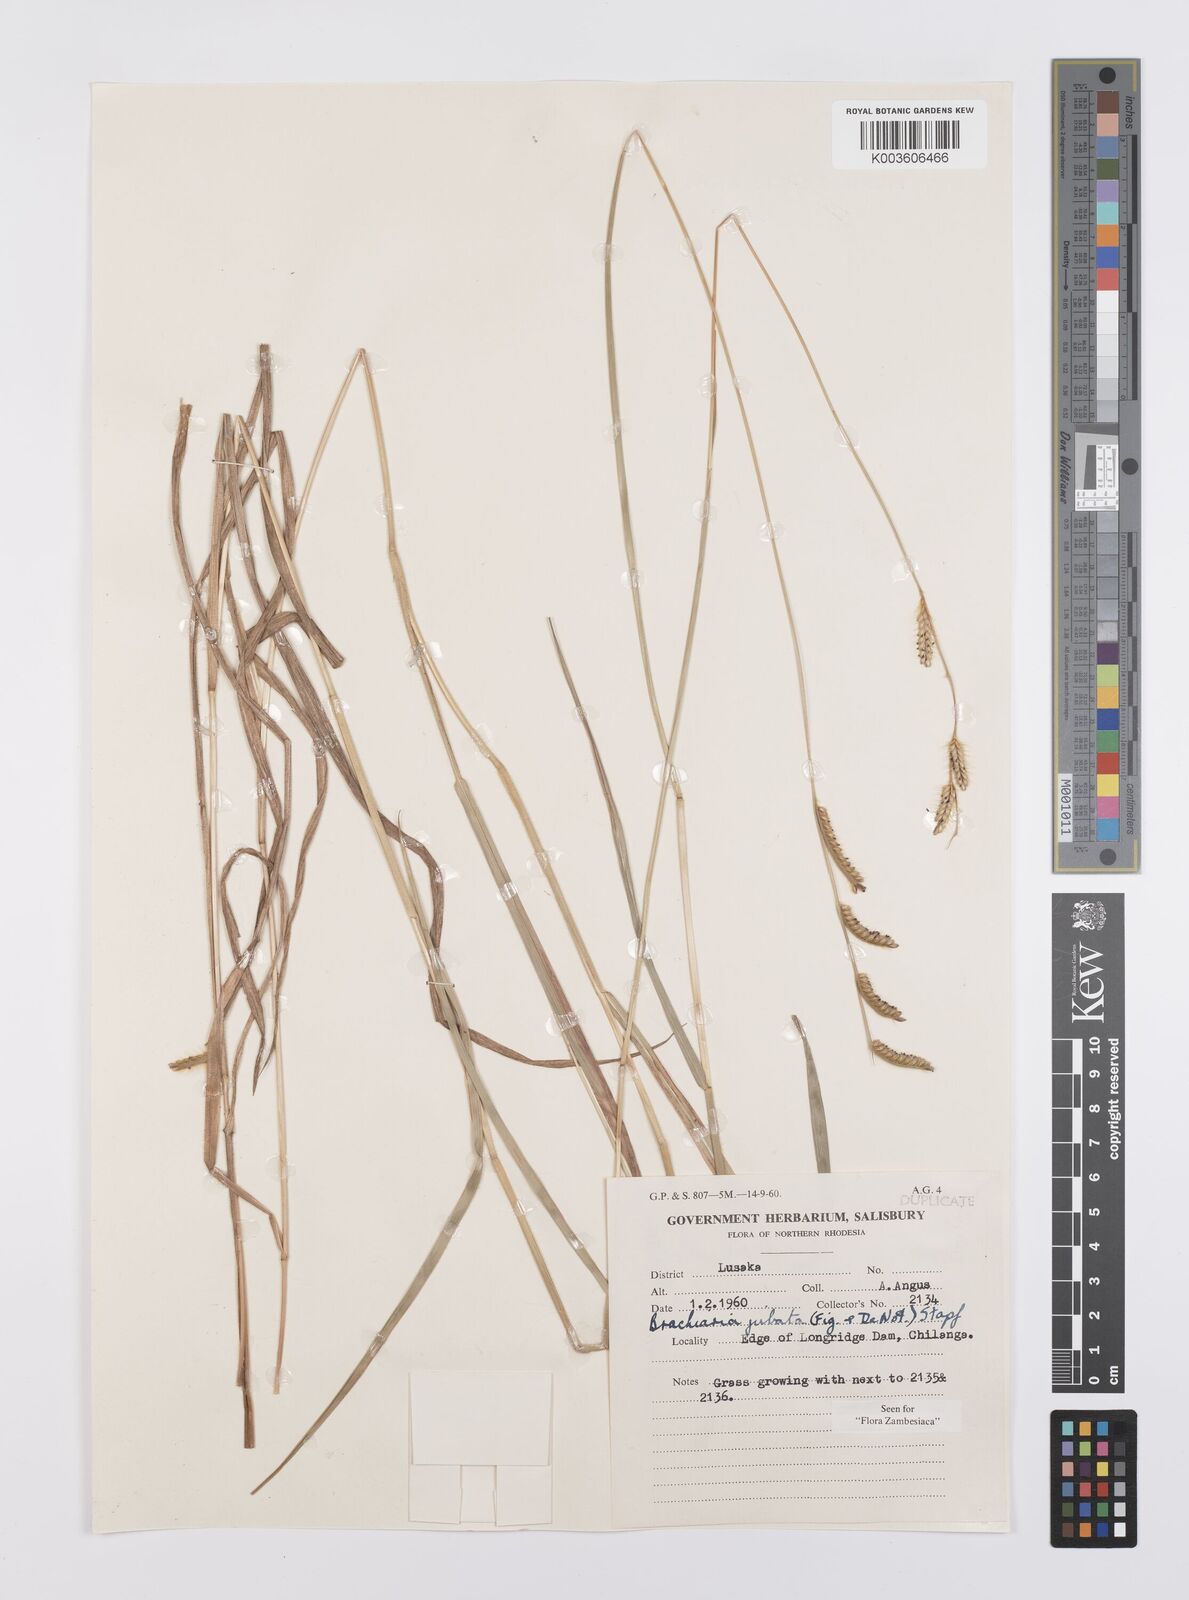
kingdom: Plantae
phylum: Tracheophyta
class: Liliopsida
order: Poales
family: Poaceae
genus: Urochloa
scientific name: Urochloa jubata
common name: Buffalograss
